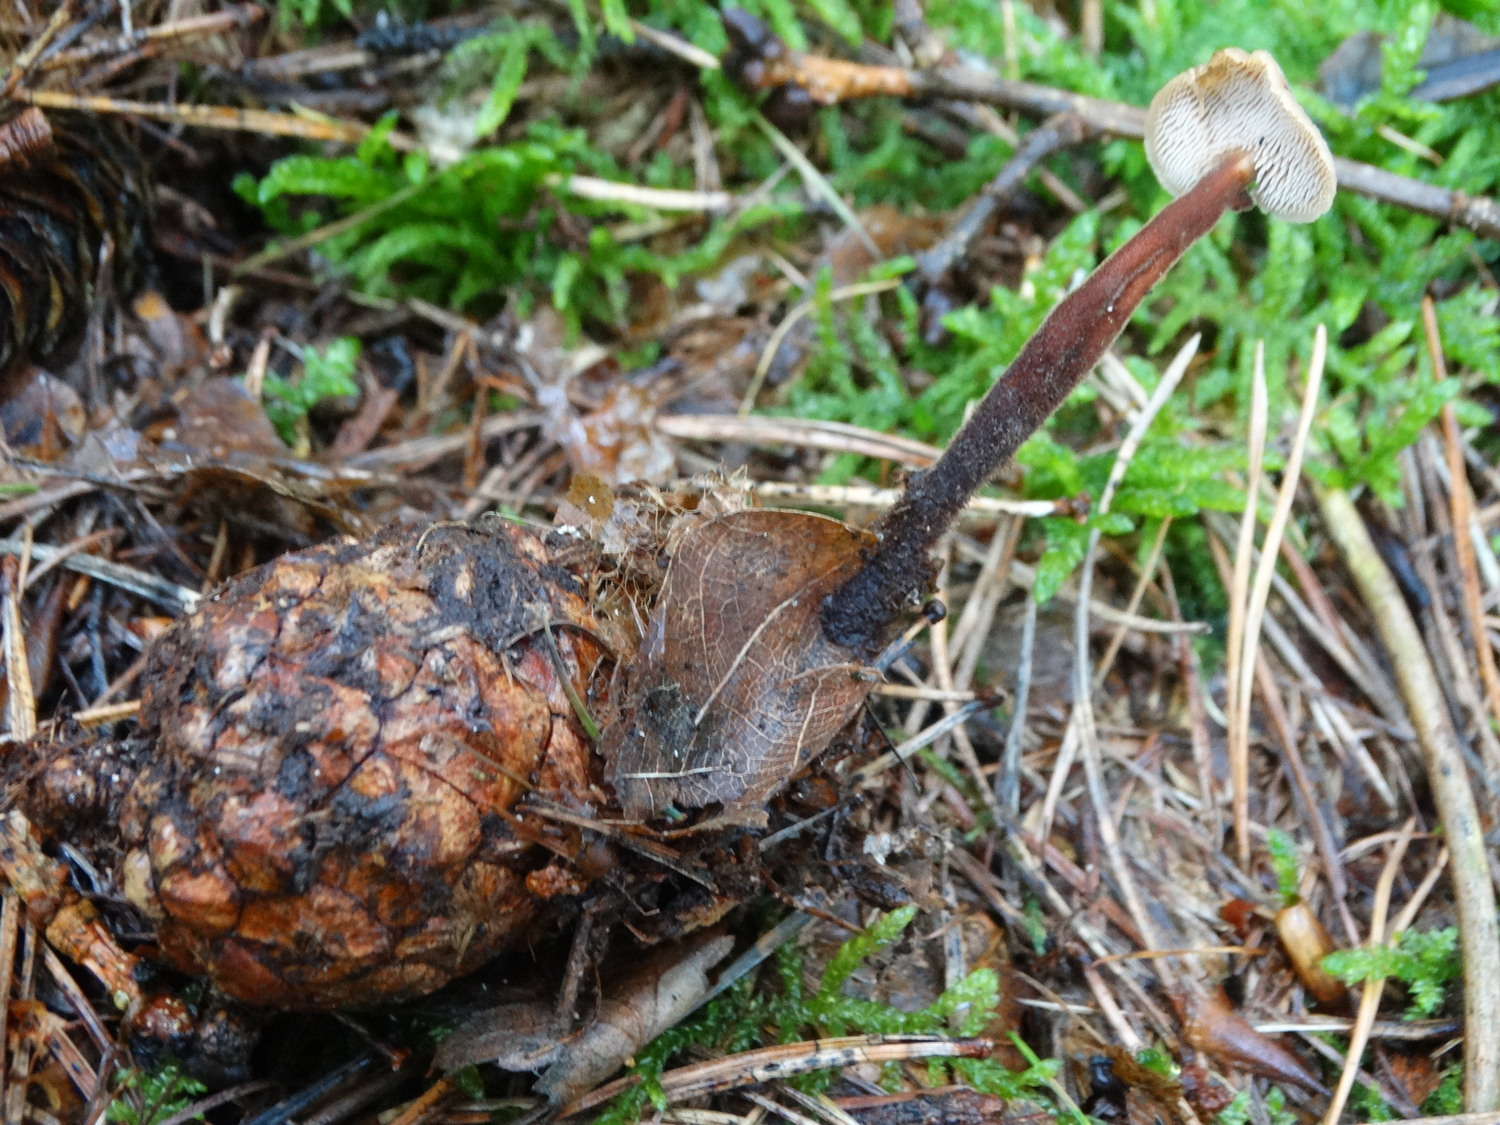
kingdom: Fungi
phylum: Basidiomycota
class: Agaricomycetes
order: Russulales
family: Auriscalpiaceae
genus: Auriscalpium
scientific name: Auriscalpium vulgare
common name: koglepigsvamp
